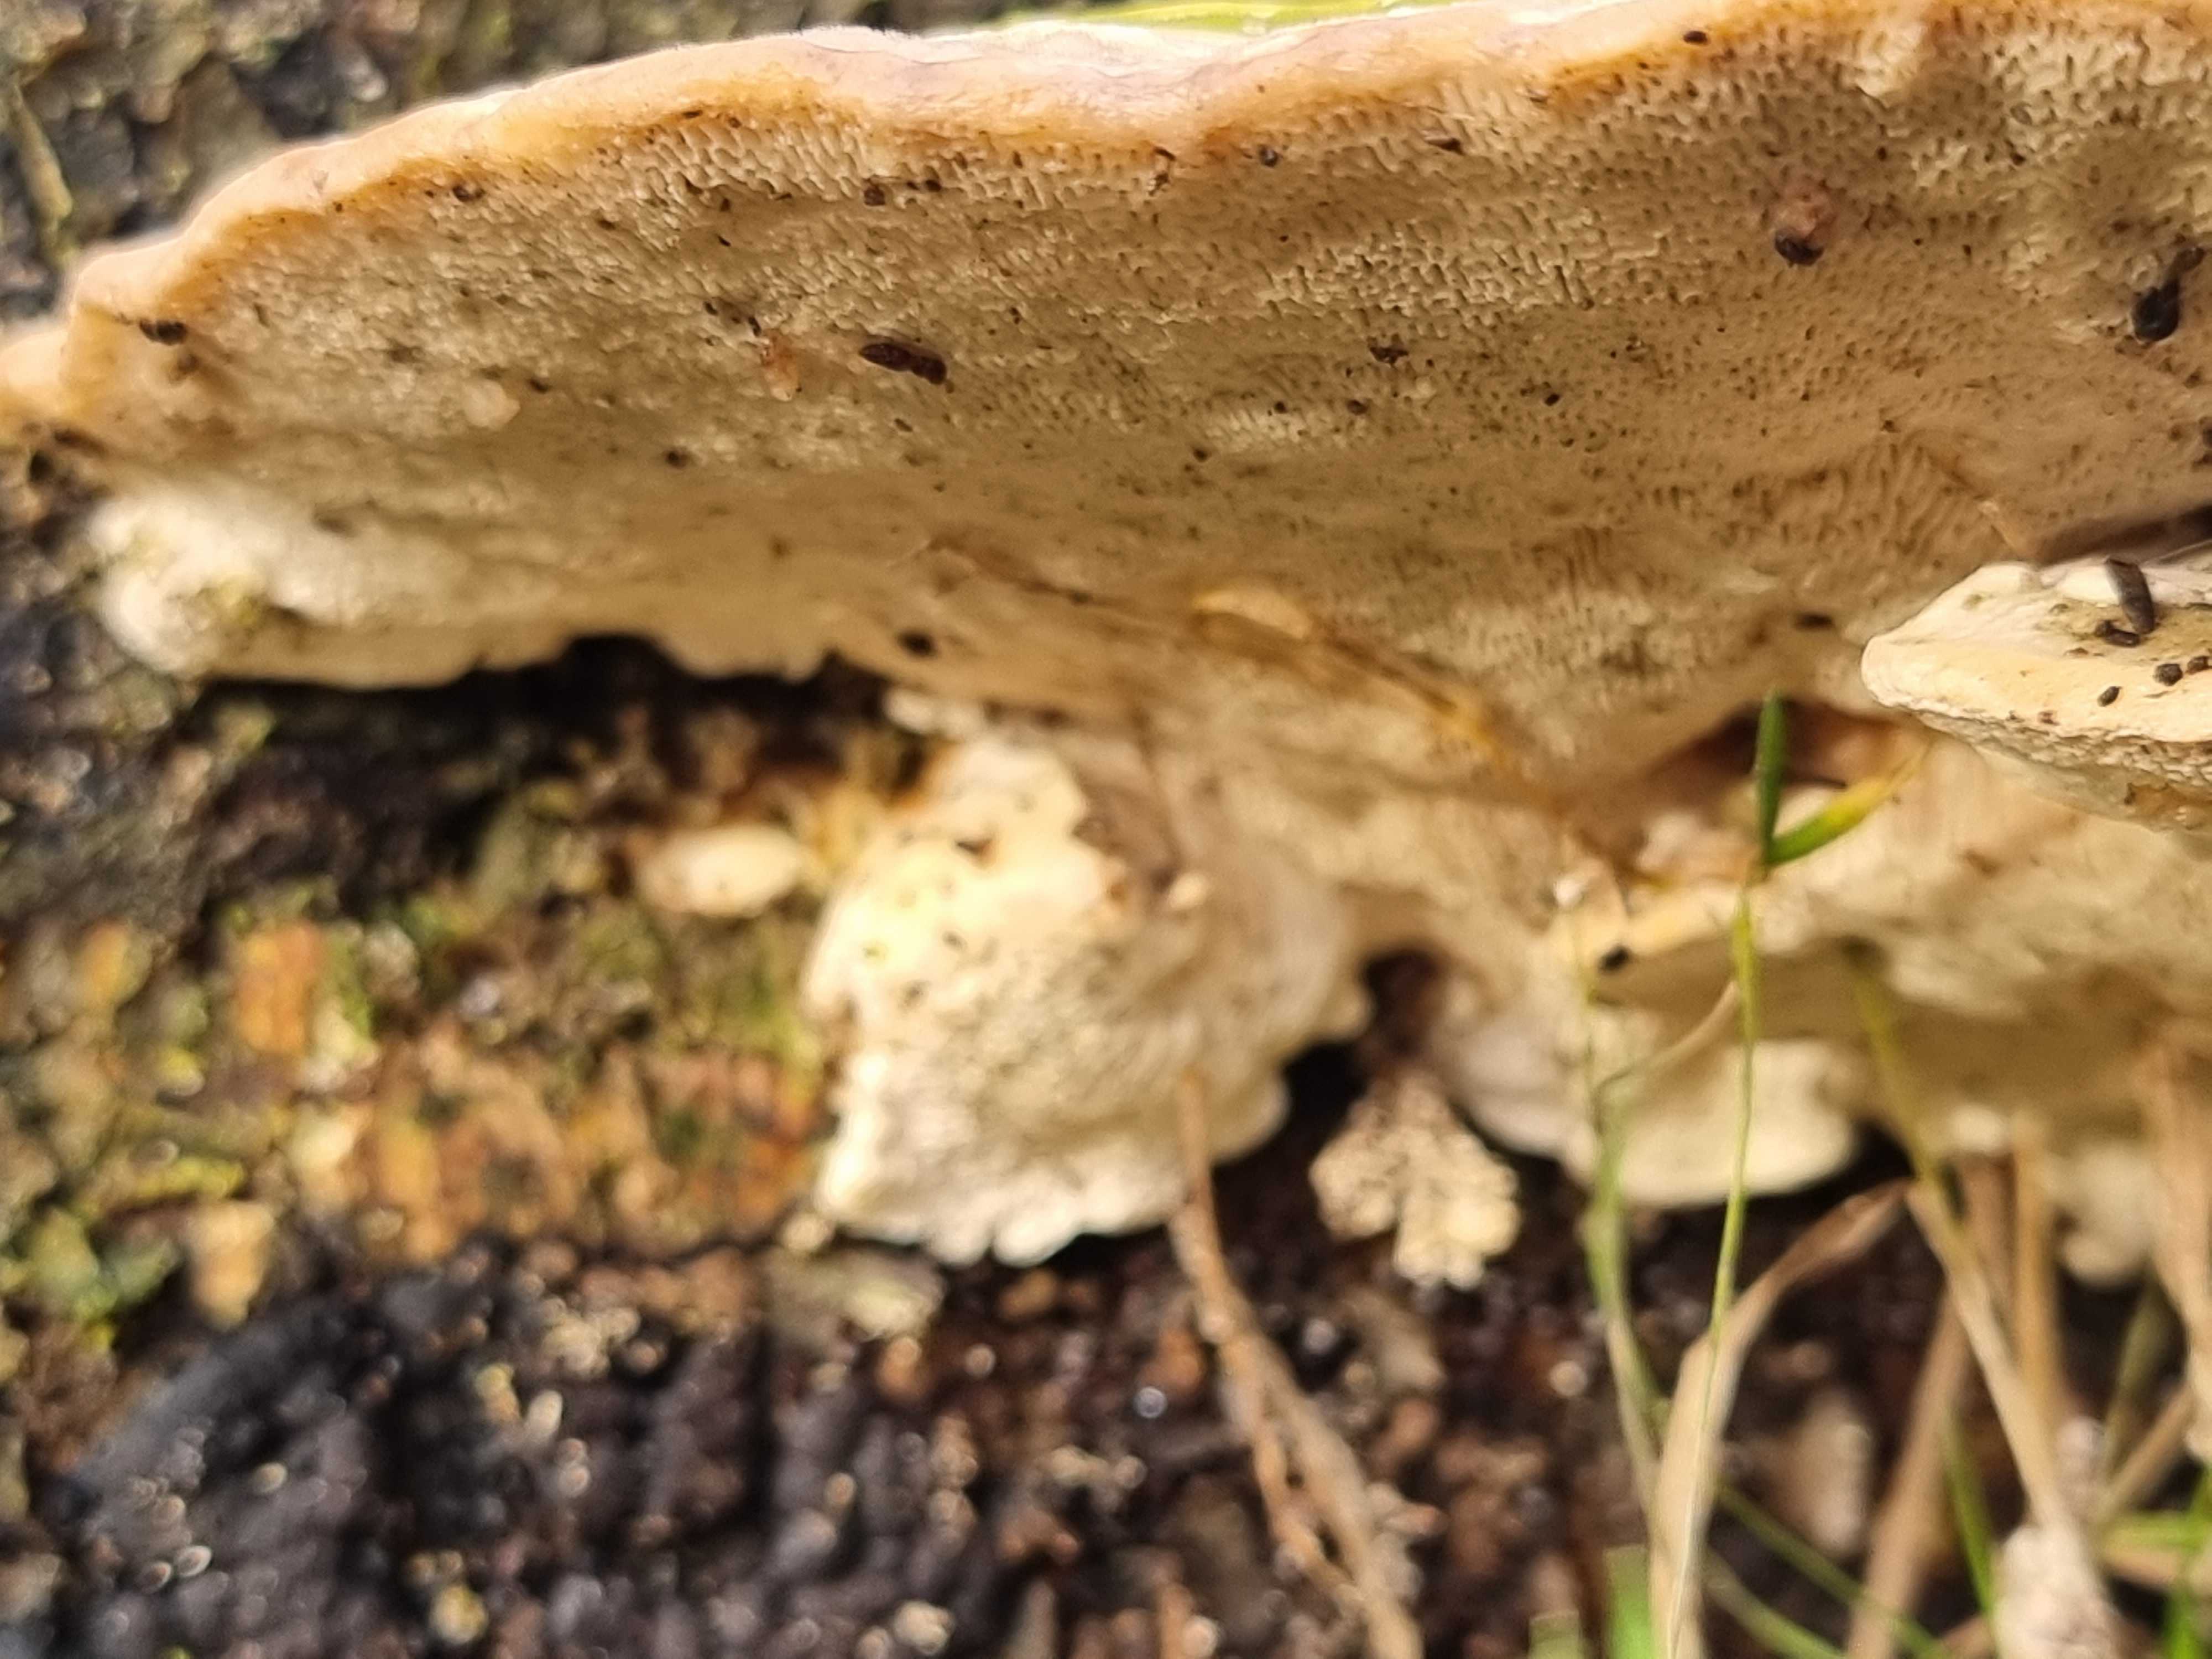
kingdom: Fungi
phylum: Basidiomycota
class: Agaricomycetes
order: Polyporales
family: Polyporaceae
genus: Trametes
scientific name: Trametes gibbosa
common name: puklet læderporesvamp
